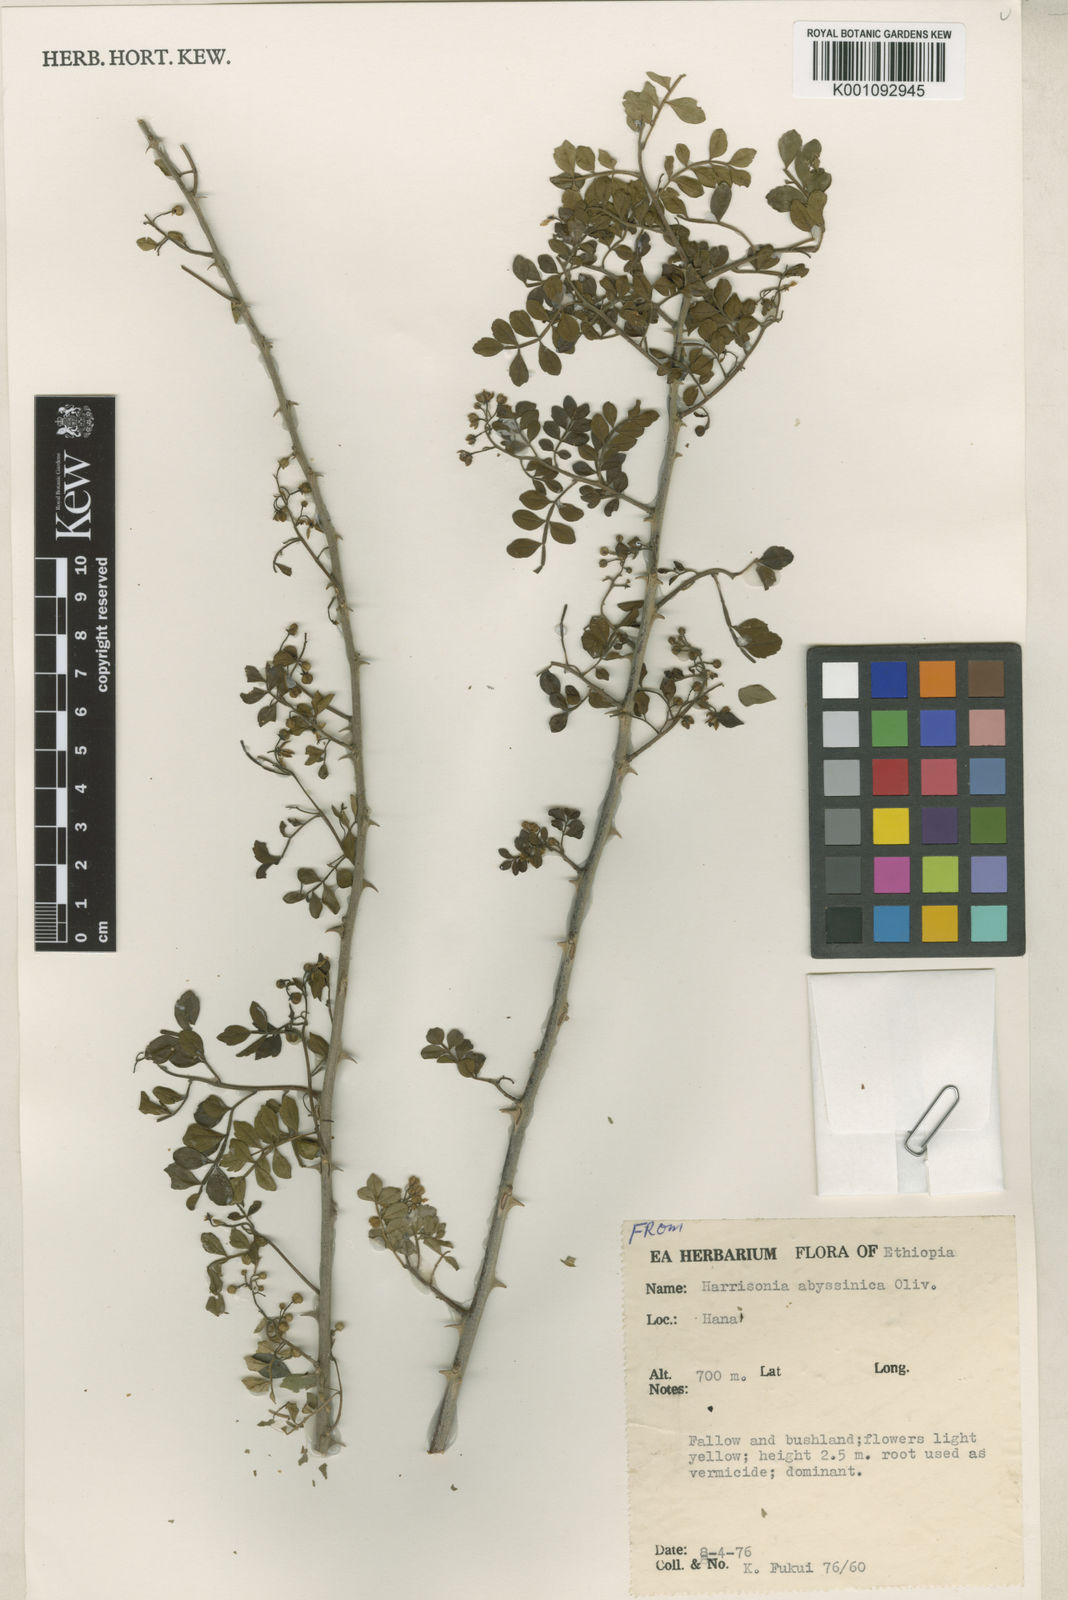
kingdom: Plantae
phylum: Tracheophyta
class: Magnoliopsida
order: Sapindales
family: Rutaceae
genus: Harrisonia
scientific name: Harrisonia abyssinica
